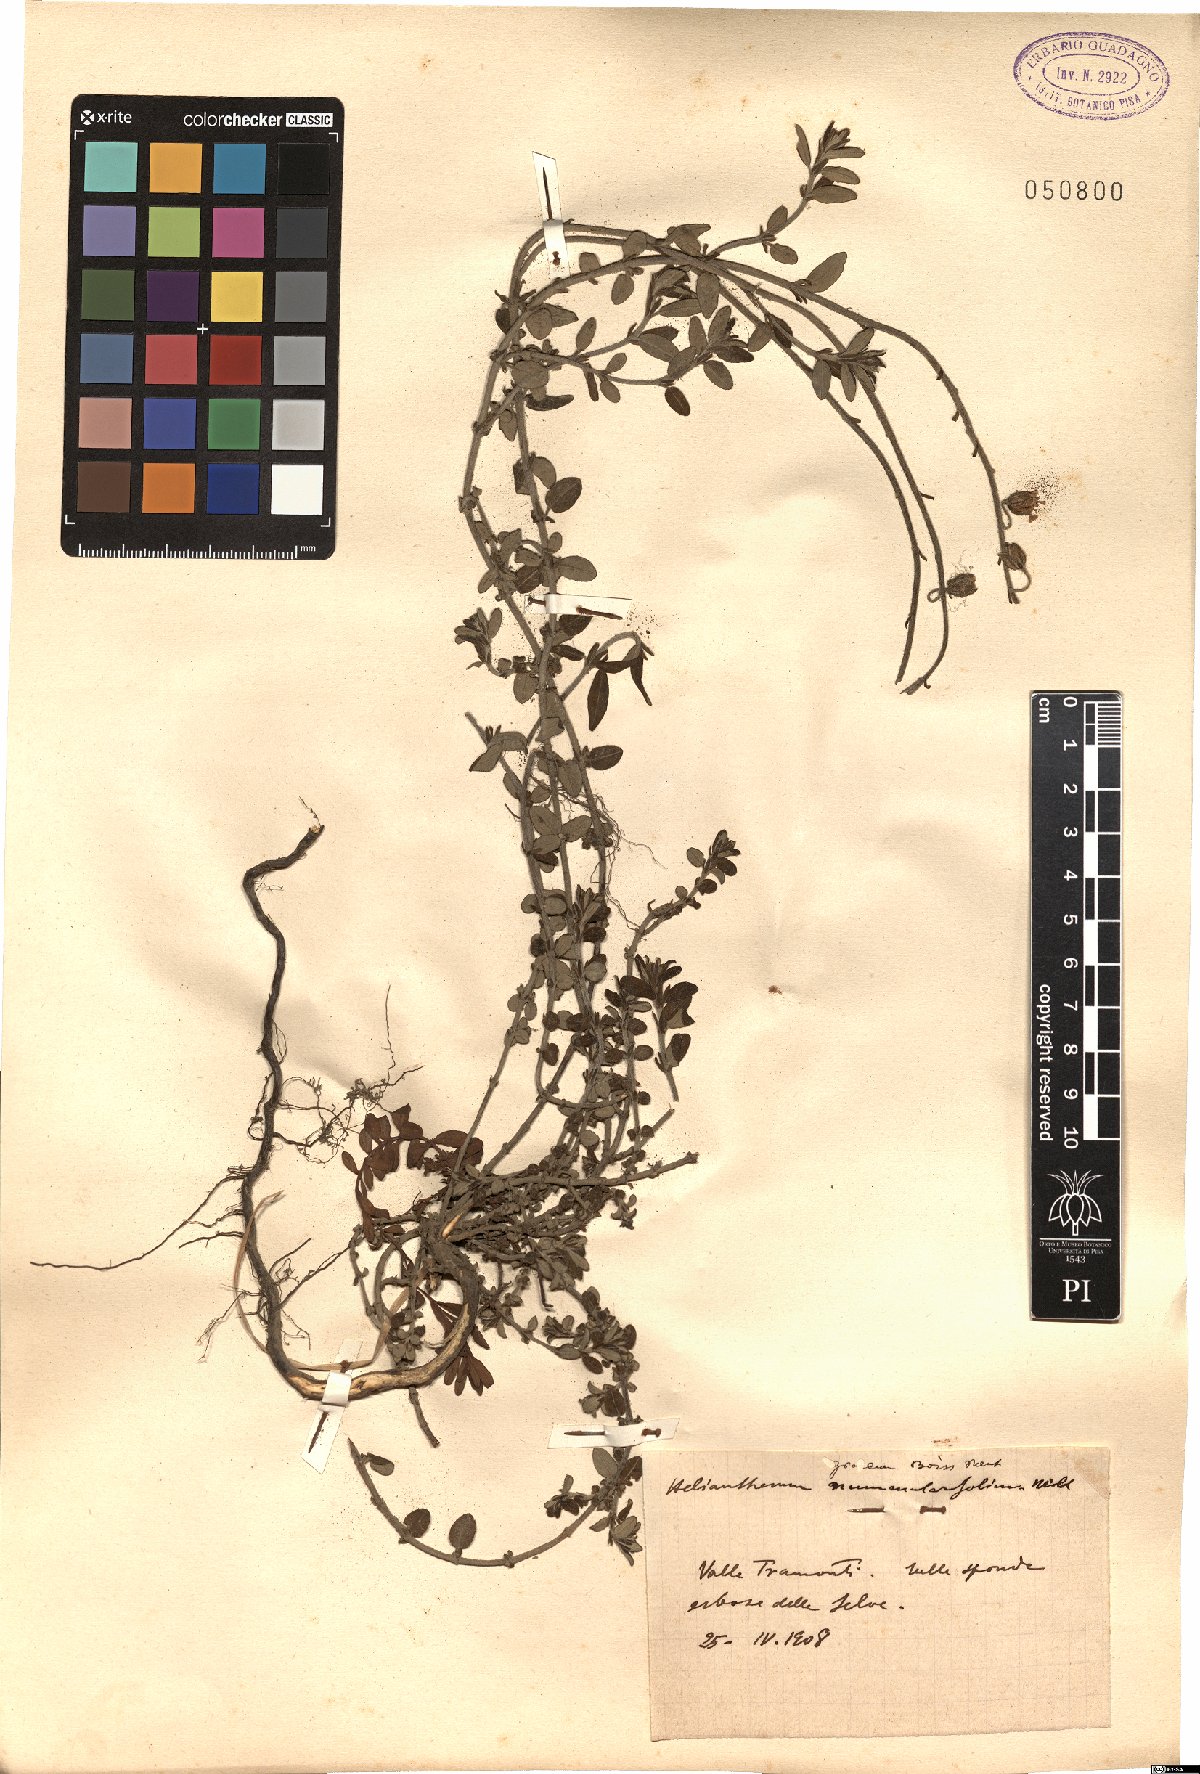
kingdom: Plantae
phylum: Tracheophyta
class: Magnoliopsida
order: Malvales
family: Cistaceae
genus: Helianthemum
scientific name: Helianthemum nummularium
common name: Common rock-rose
